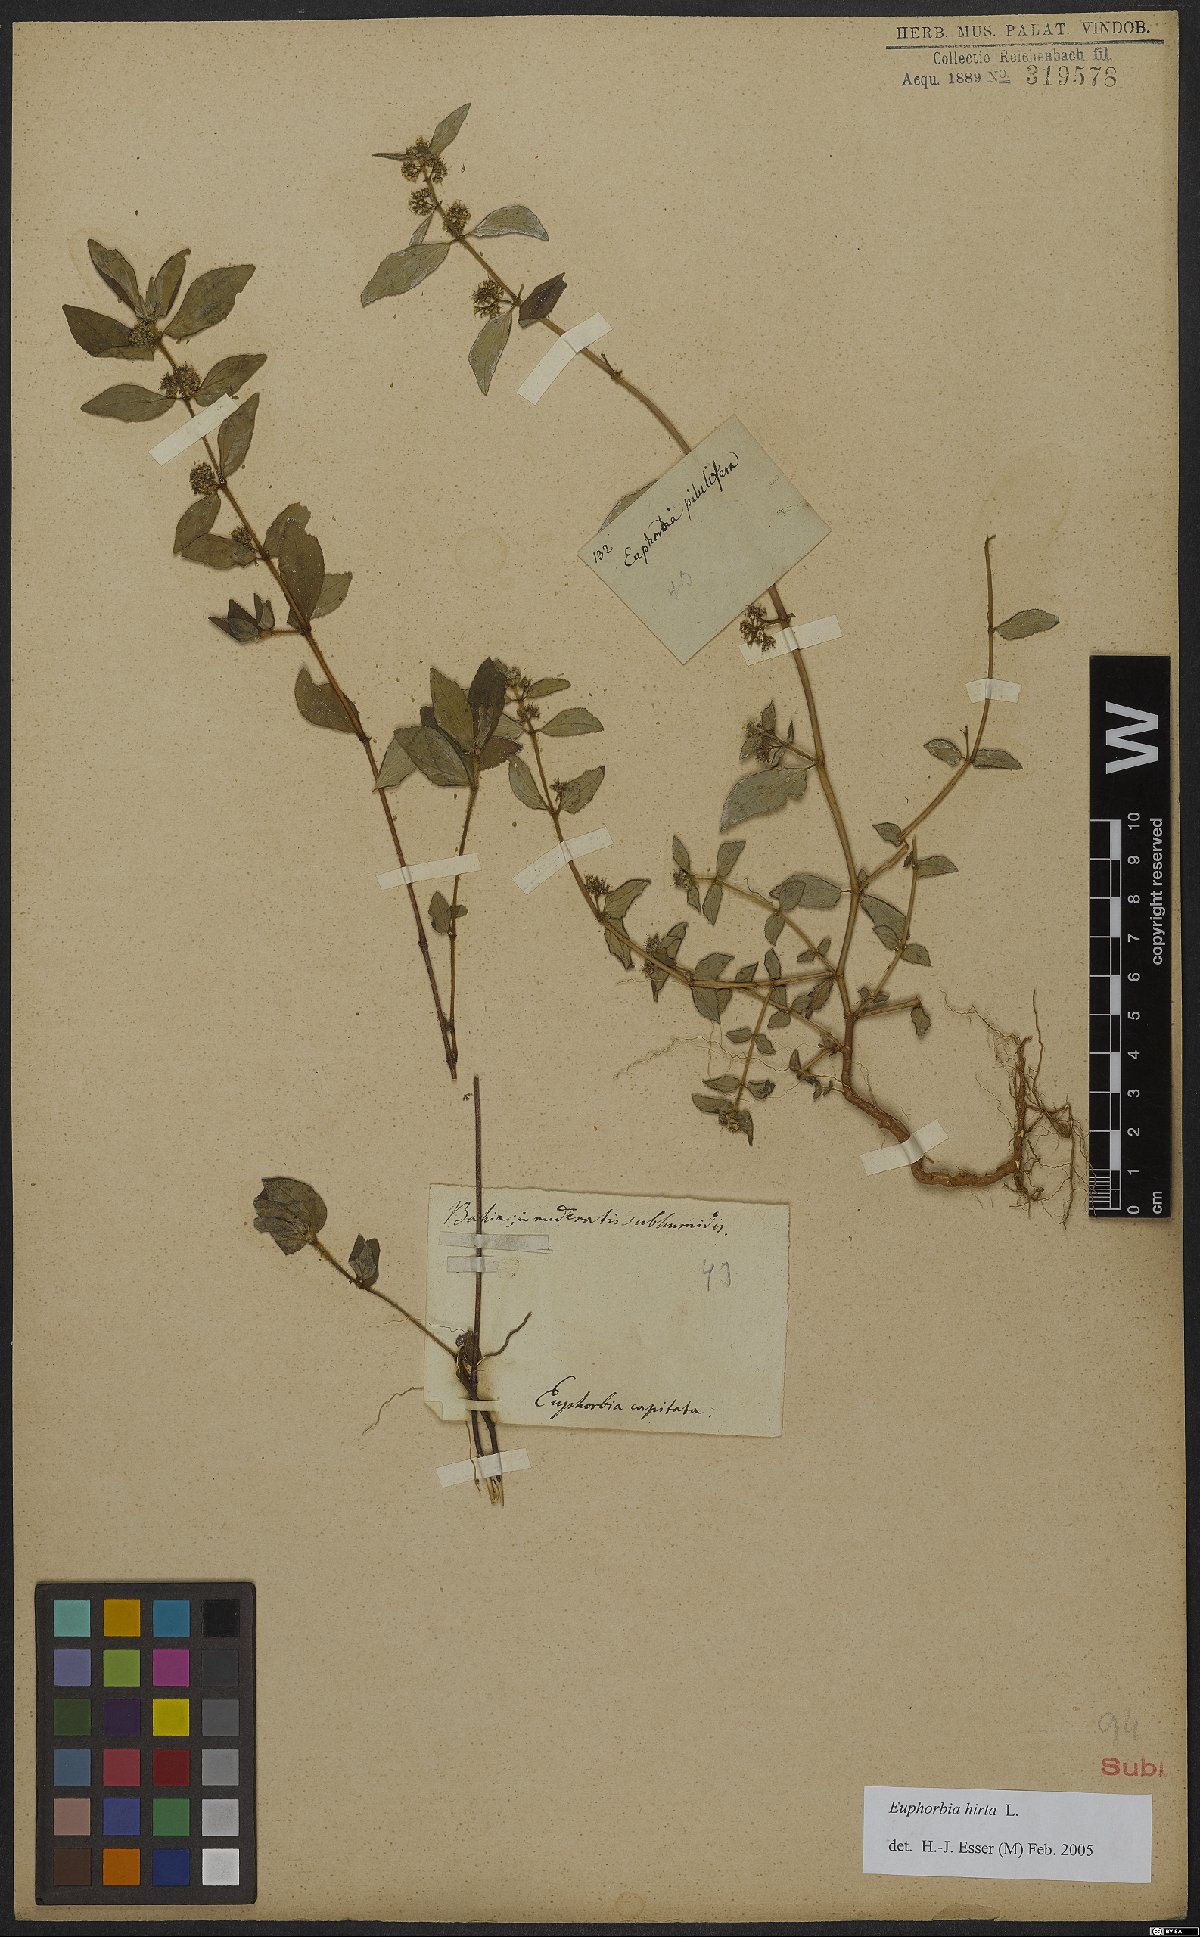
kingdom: Plantae
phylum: Tracheophyta
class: Magnoliopsida
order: Malpighiales
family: Euphorbiaceae
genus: Euphorbia
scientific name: Euphorbia hirta
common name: Pillpod sandmat
